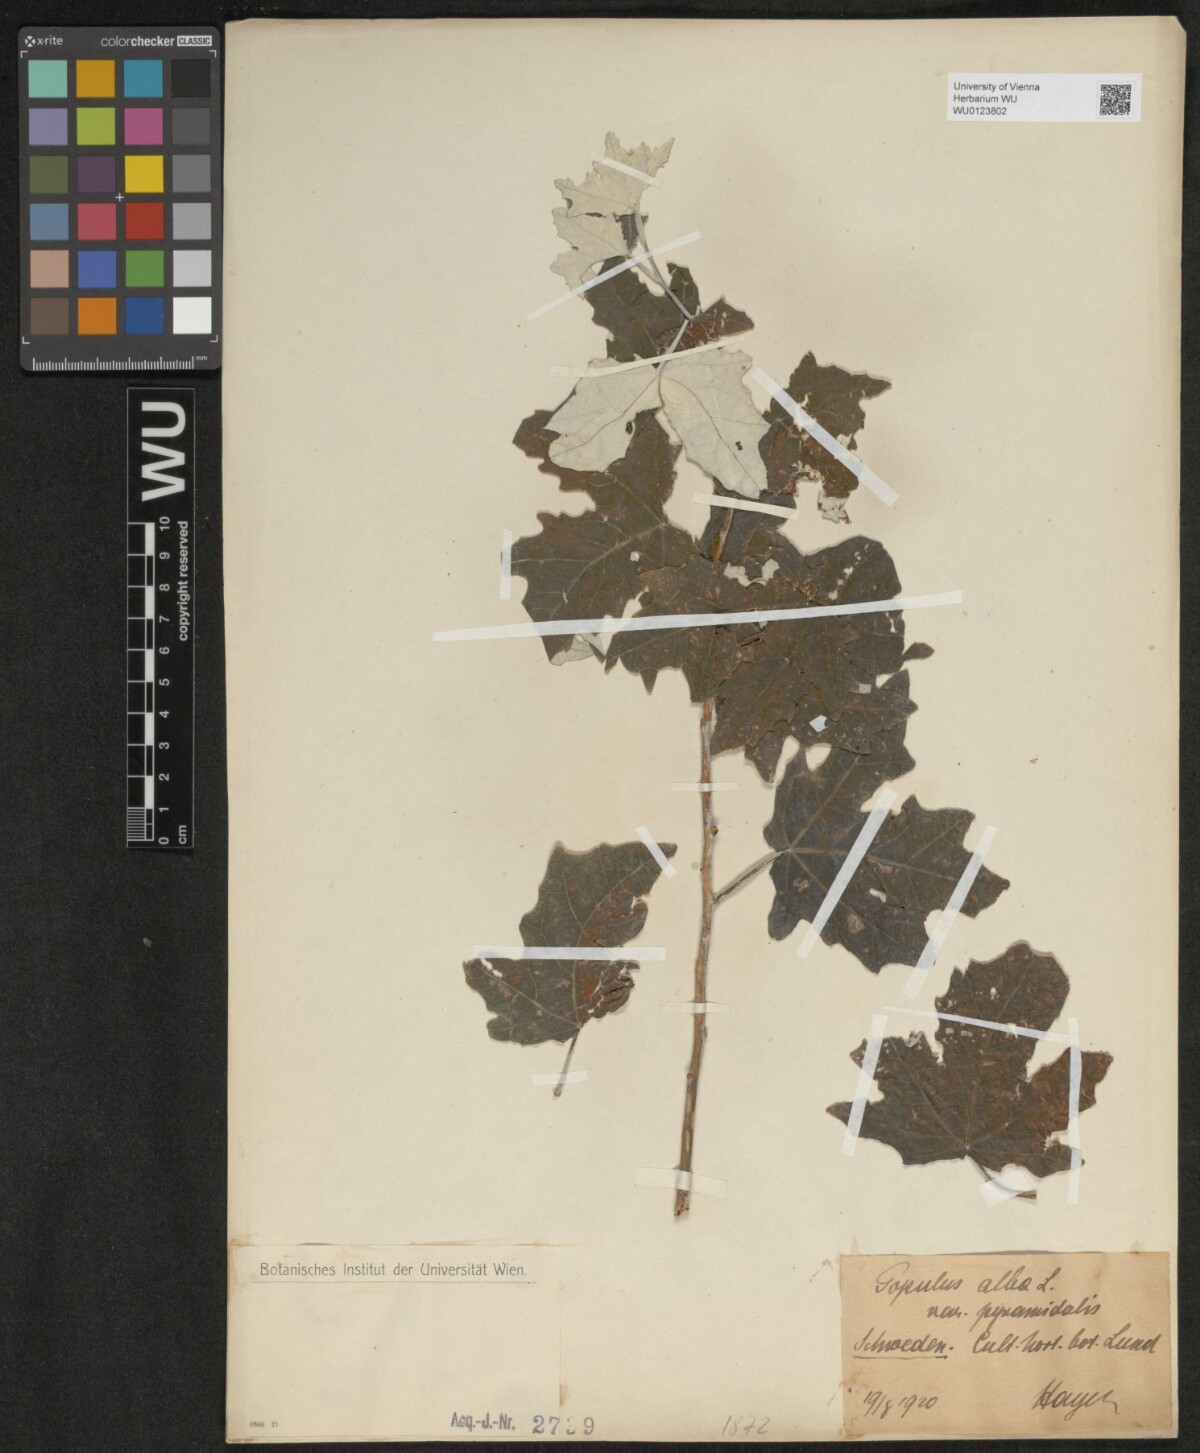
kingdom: Plantae
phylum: Tracheophyta
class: Magnoliopsida
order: Malpighiales
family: Salicaceae
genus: Populus
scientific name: Populus alba
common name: White poplar
